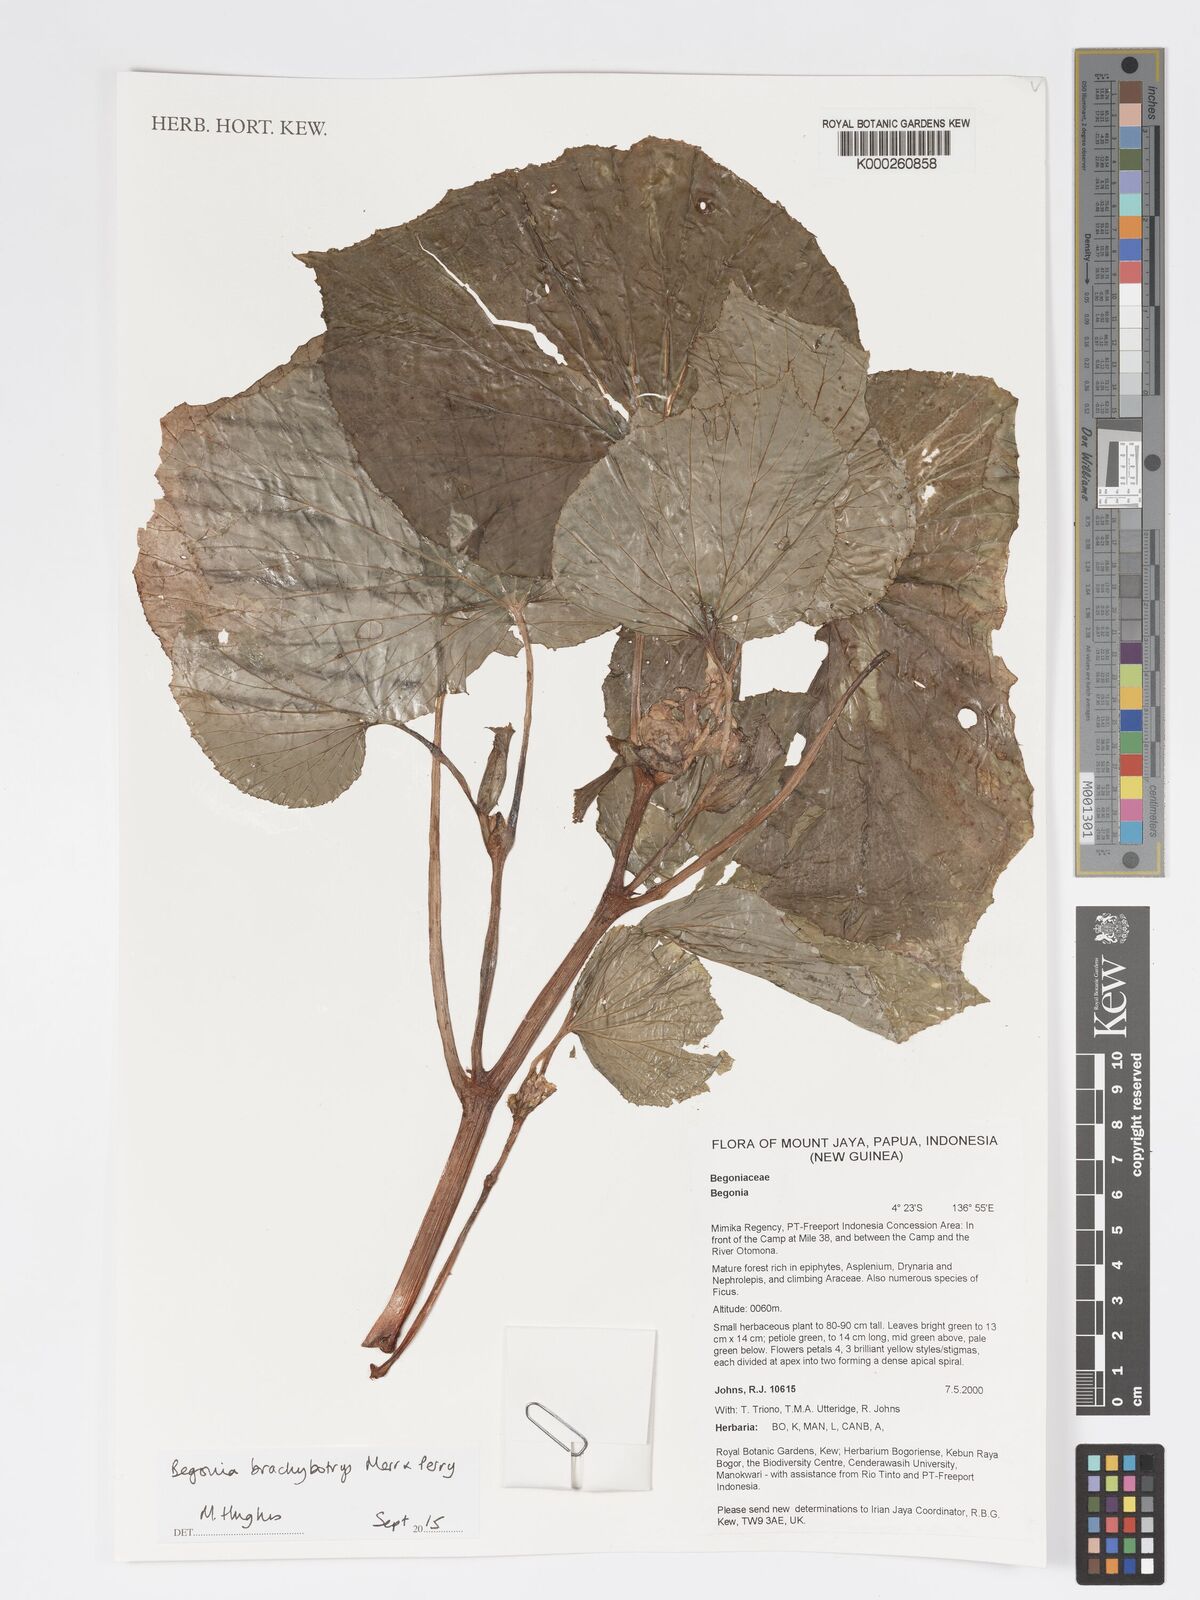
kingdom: Plantae
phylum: Tracheophyta
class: Magnoliopsida
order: Cucurbitales
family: Begoniaceae
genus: Begonia
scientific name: Begonia brachybotrys
